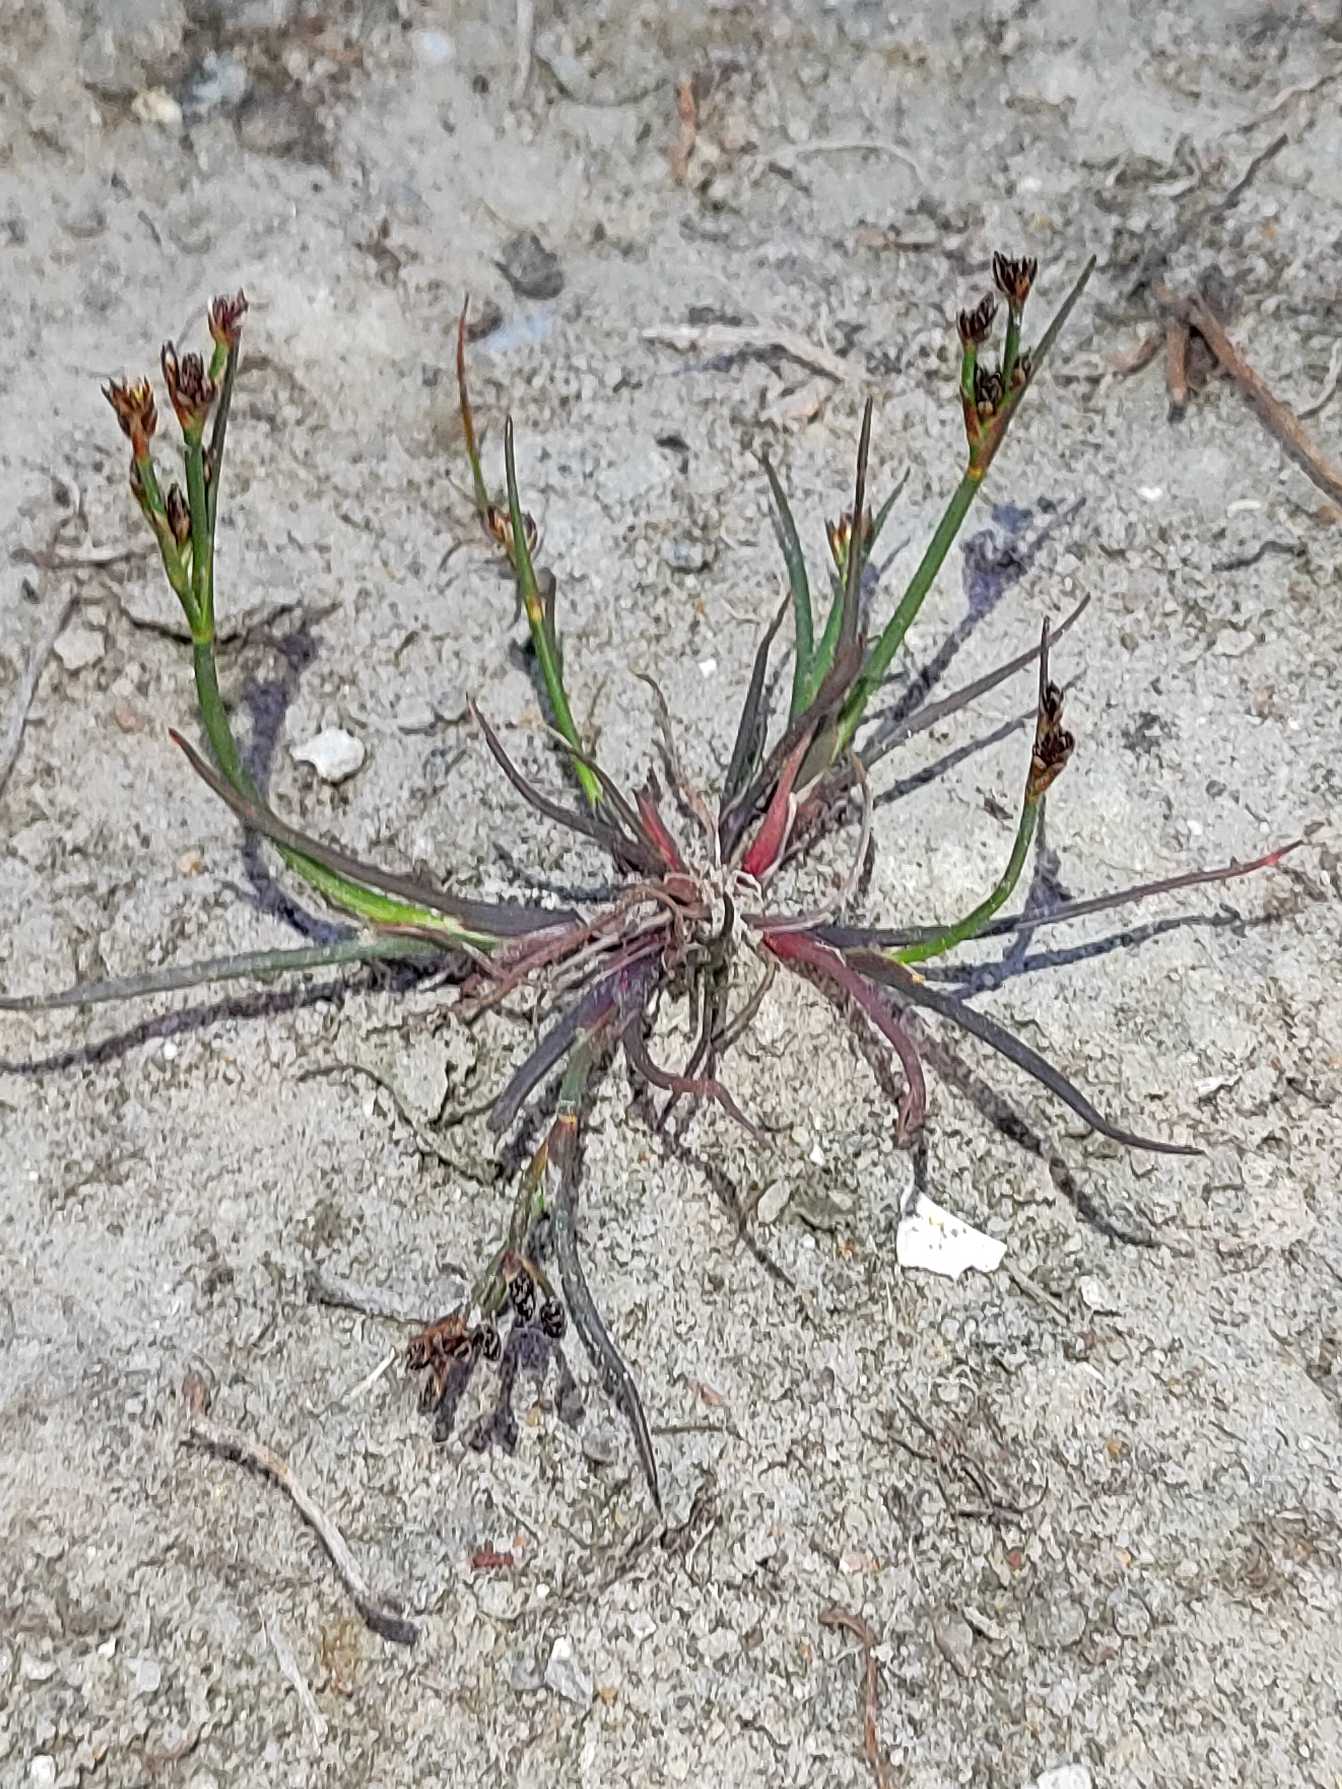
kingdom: Plantae
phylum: Tracheophyta
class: Liliopsida
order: Poales
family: Juncaceae
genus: Juncus
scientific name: Juncus articulatus
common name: Glanskapslet siv
